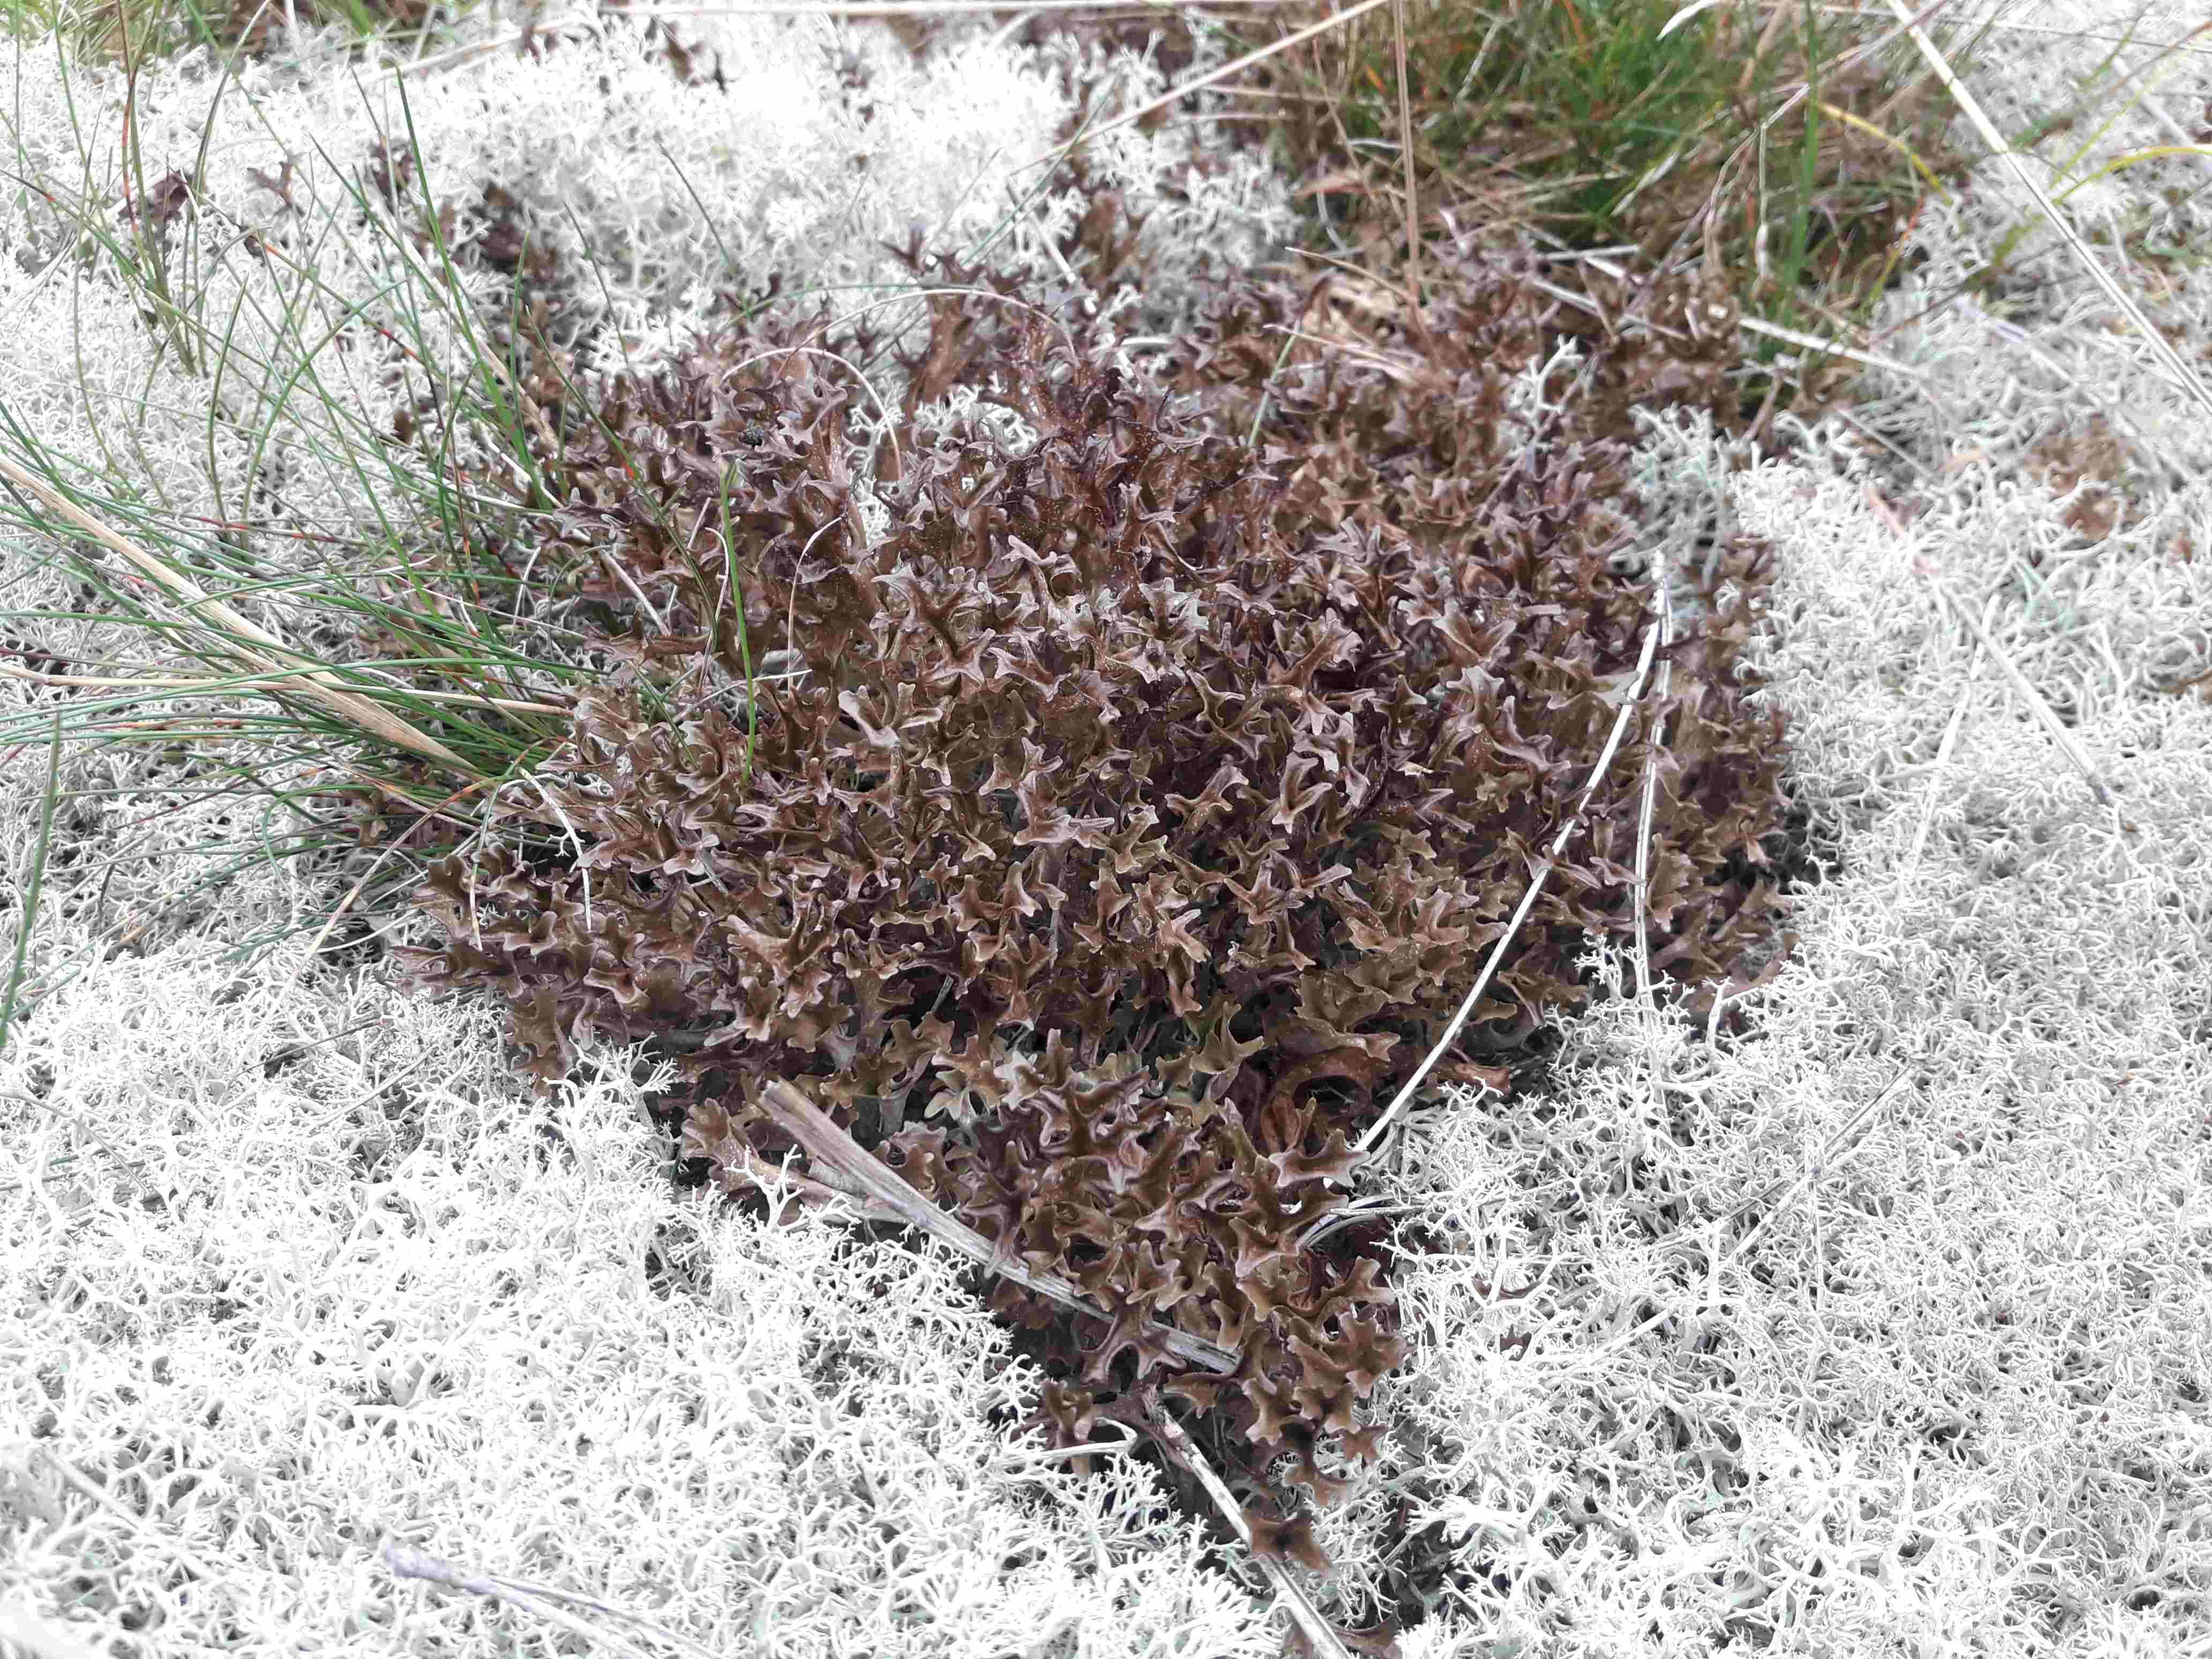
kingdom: Fungi
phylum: Ascomycota
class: Lecanoromycetes
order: Lecanorales
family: Parmeliaceae
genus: Cetraria
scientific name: Cetraria islandica
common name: islandsk kruslav
